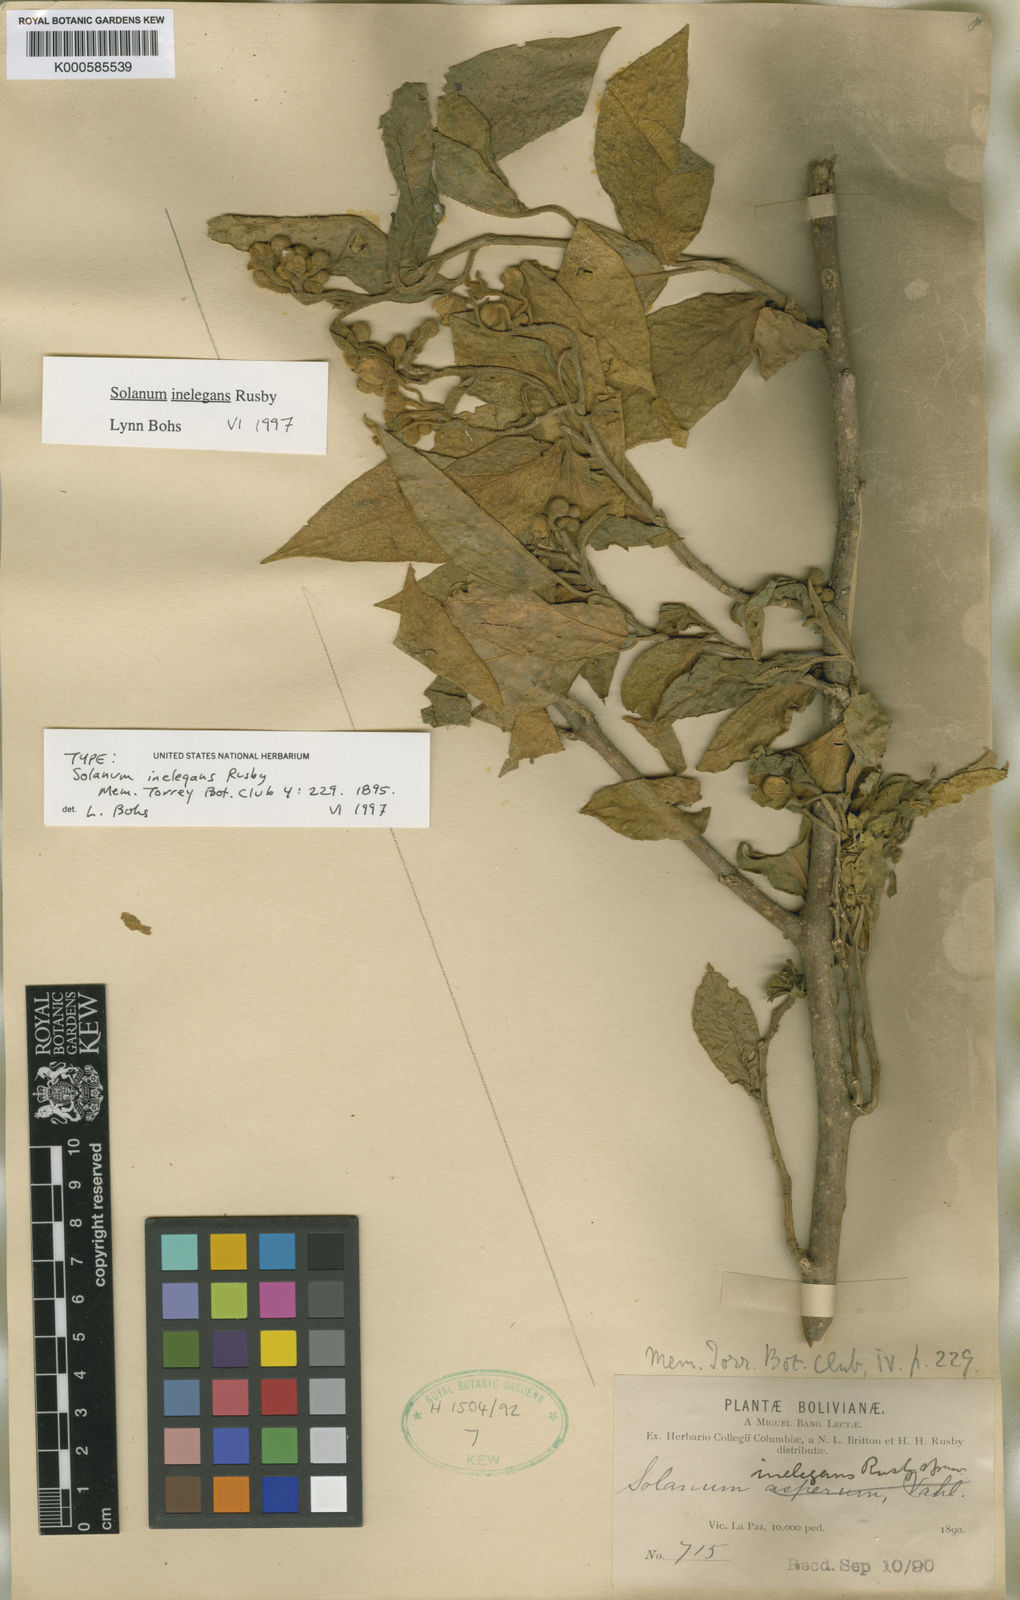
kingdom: Plantae
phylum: Tracheophyta
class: Magnoliopsida
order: Solanales
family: Solanaceae
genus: Solanum
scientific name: Solanum inelegans
